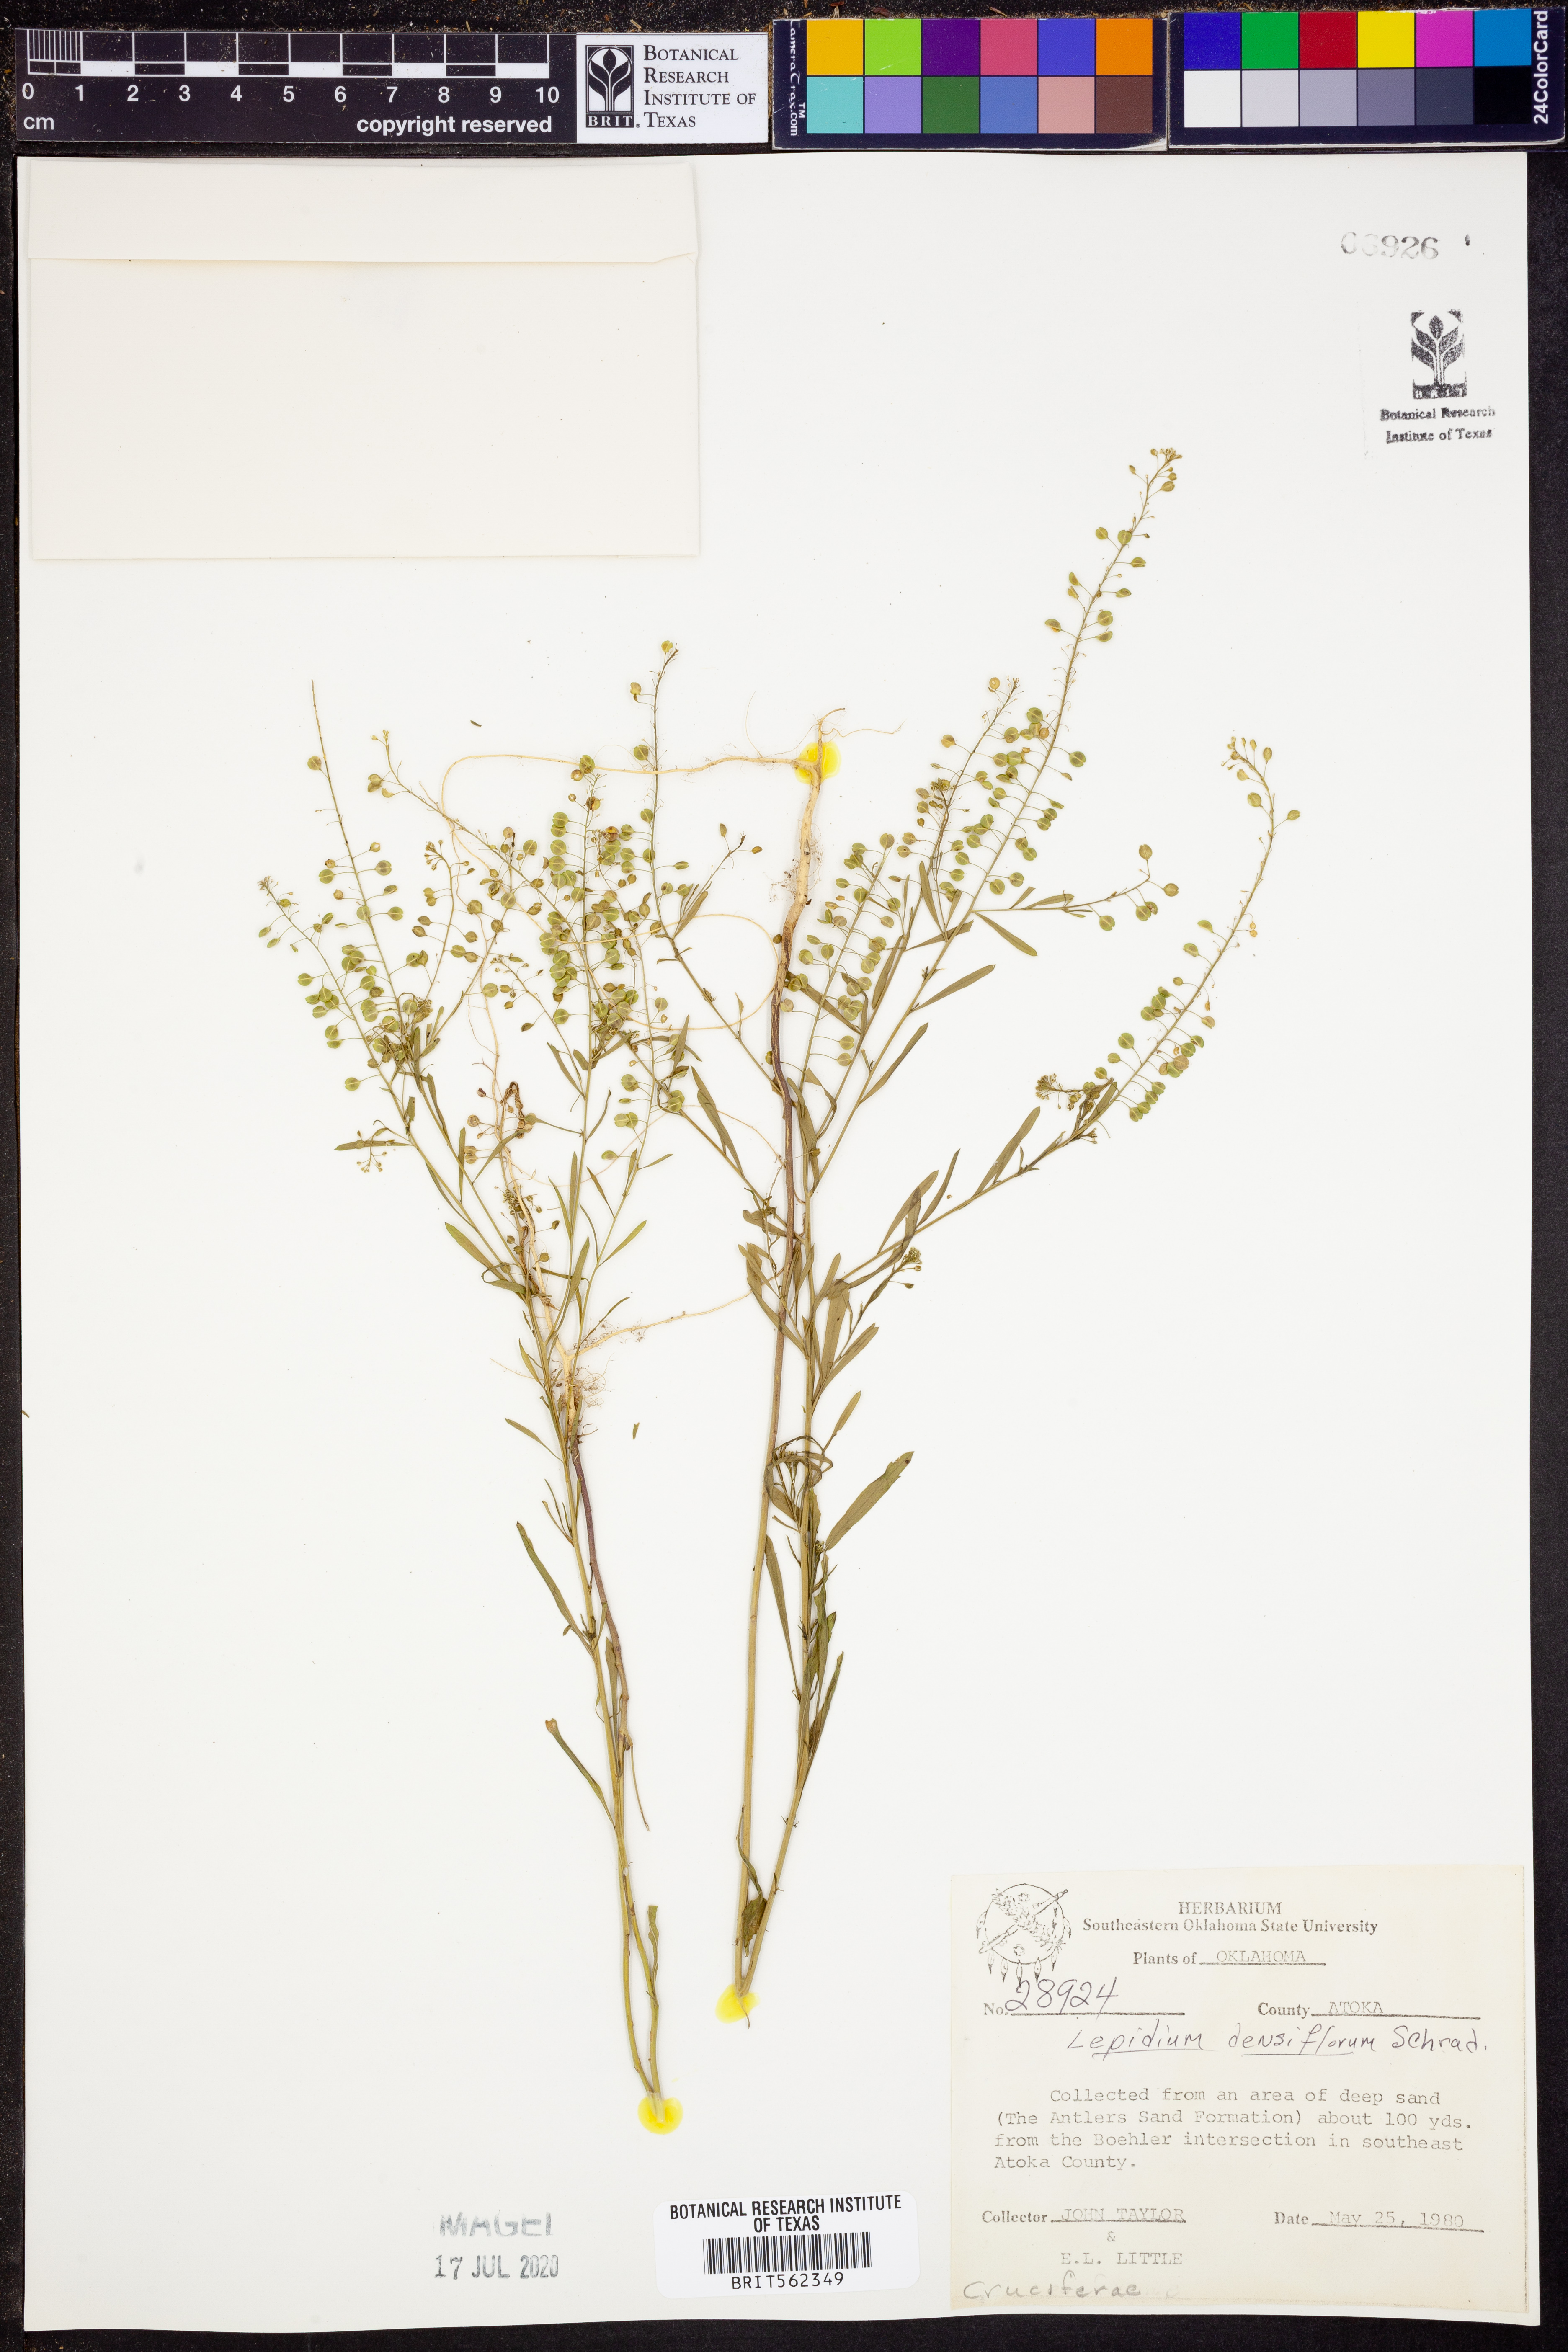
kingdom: Plantae
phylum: Tracheophyta
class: Magnoliopsida
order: Brassicales
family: Brassicaceae
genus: Lepidium
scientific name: Lepidium densiflorum
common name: Miner's pepperwort
